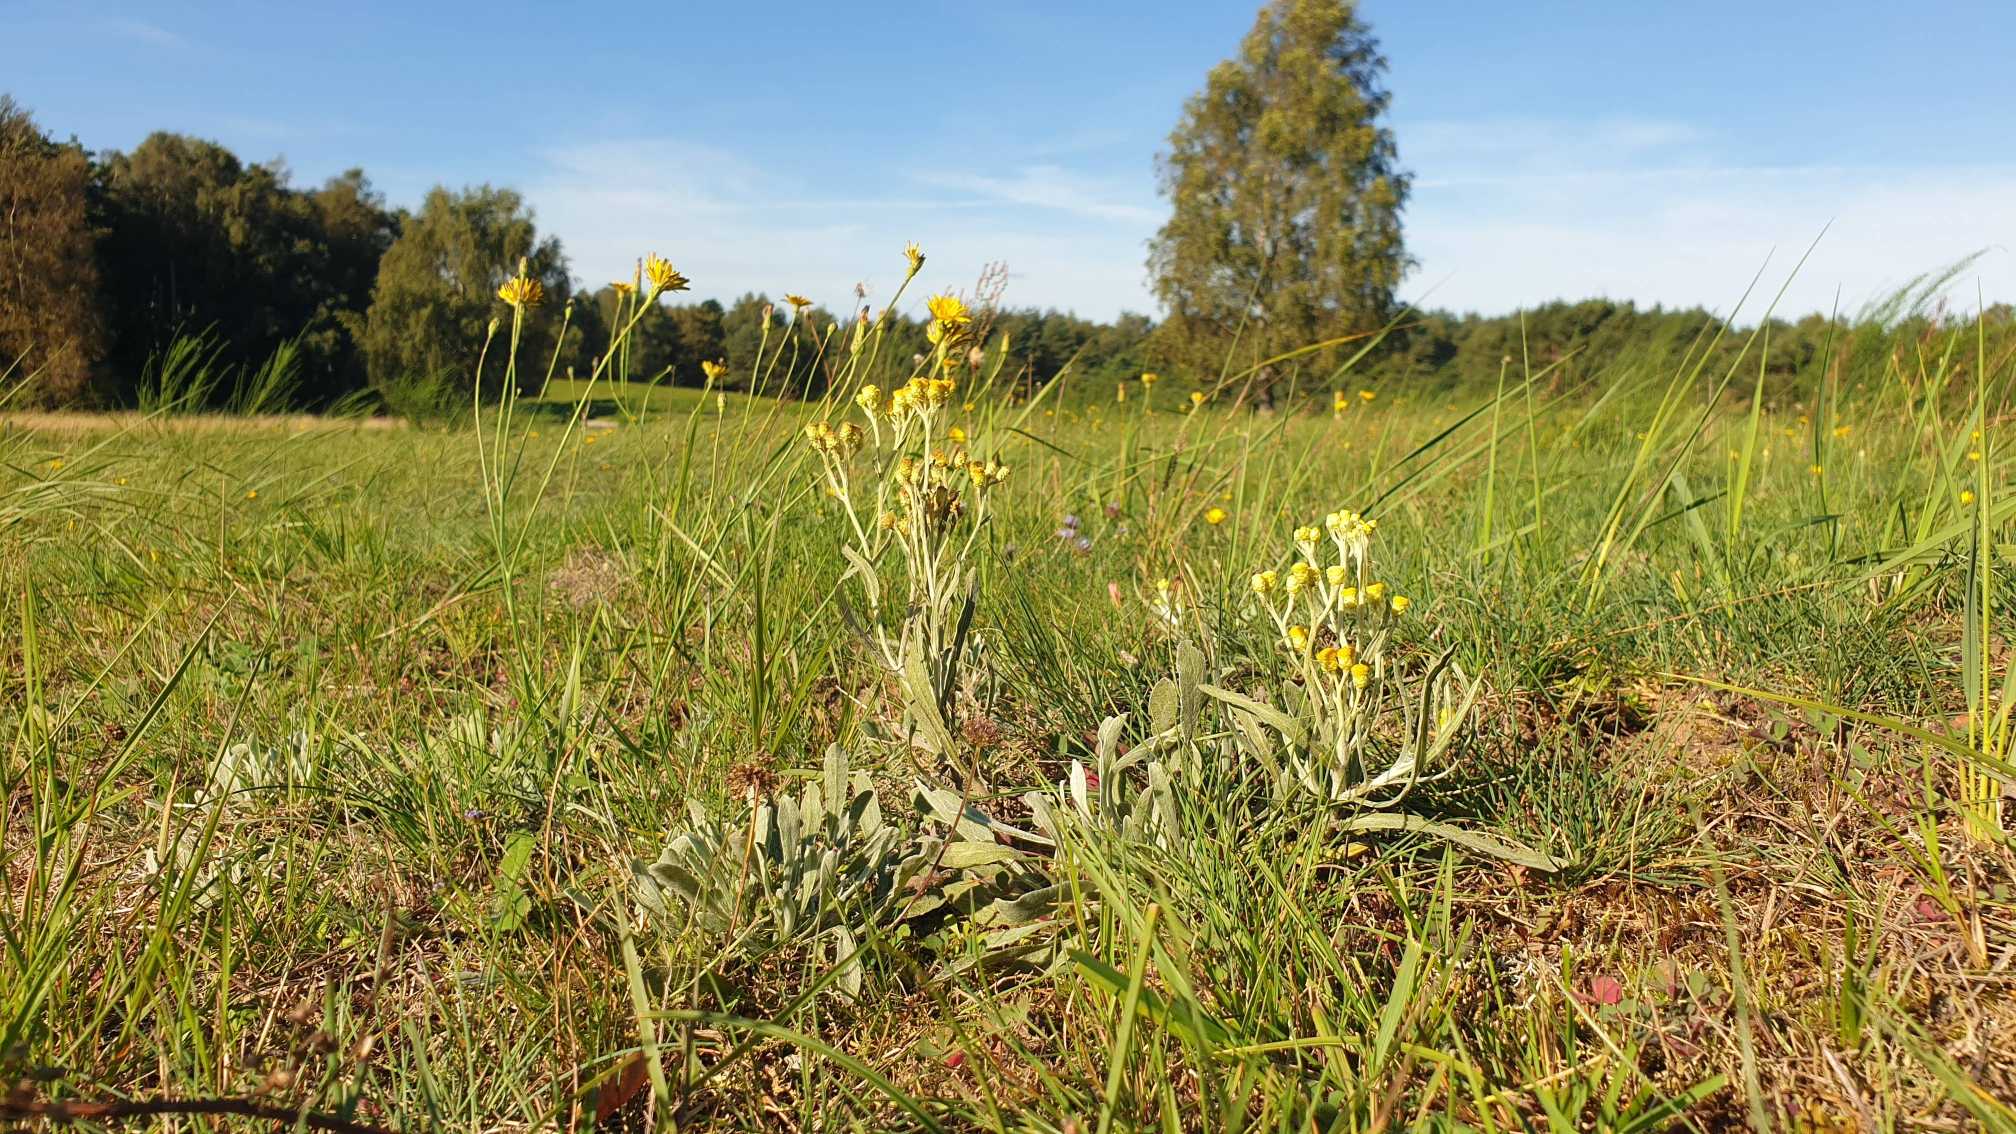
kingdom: Plantae
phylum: Tracheophyta
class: Magnoliopsida
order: Asterales
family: Asteraceae
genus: Helichrysum
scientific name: Helichrysum arenarium
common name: Gul evighedsblomst
